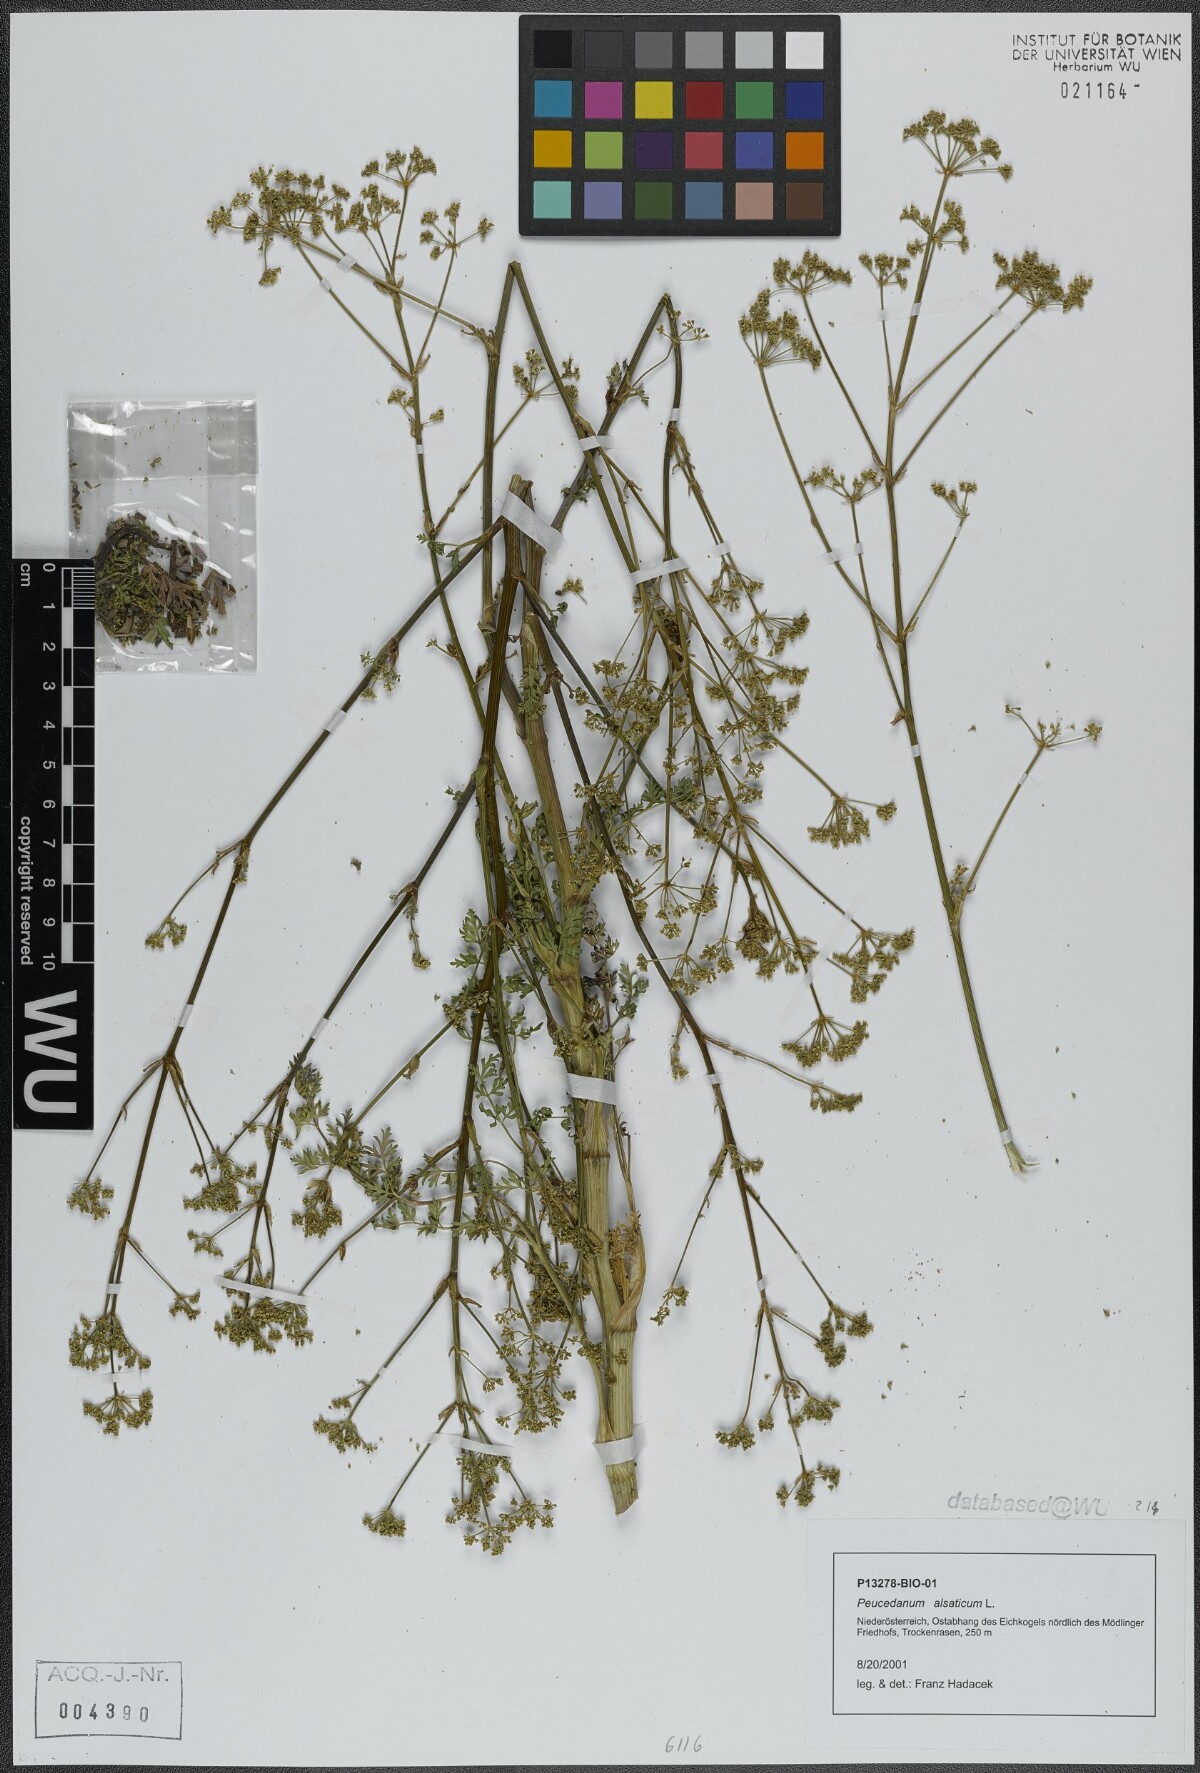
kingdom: Plantae
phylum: Tracheophyta
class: Magnoliopsida
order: Apiales
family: Apiaceae
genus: Xanthoselinum
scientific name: Xanthoselinum alsaticum
